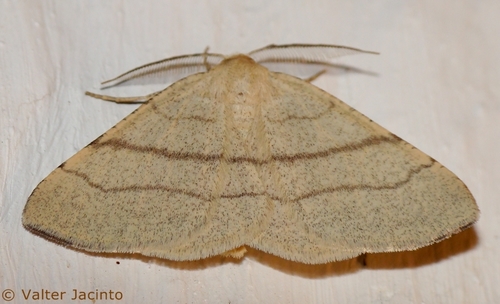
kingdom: Animalia
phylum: Arthropoda
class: Insecta
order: Lepidoptera
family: Geometridae
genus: Adactylotis
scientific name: Adactylotis gesticularia
